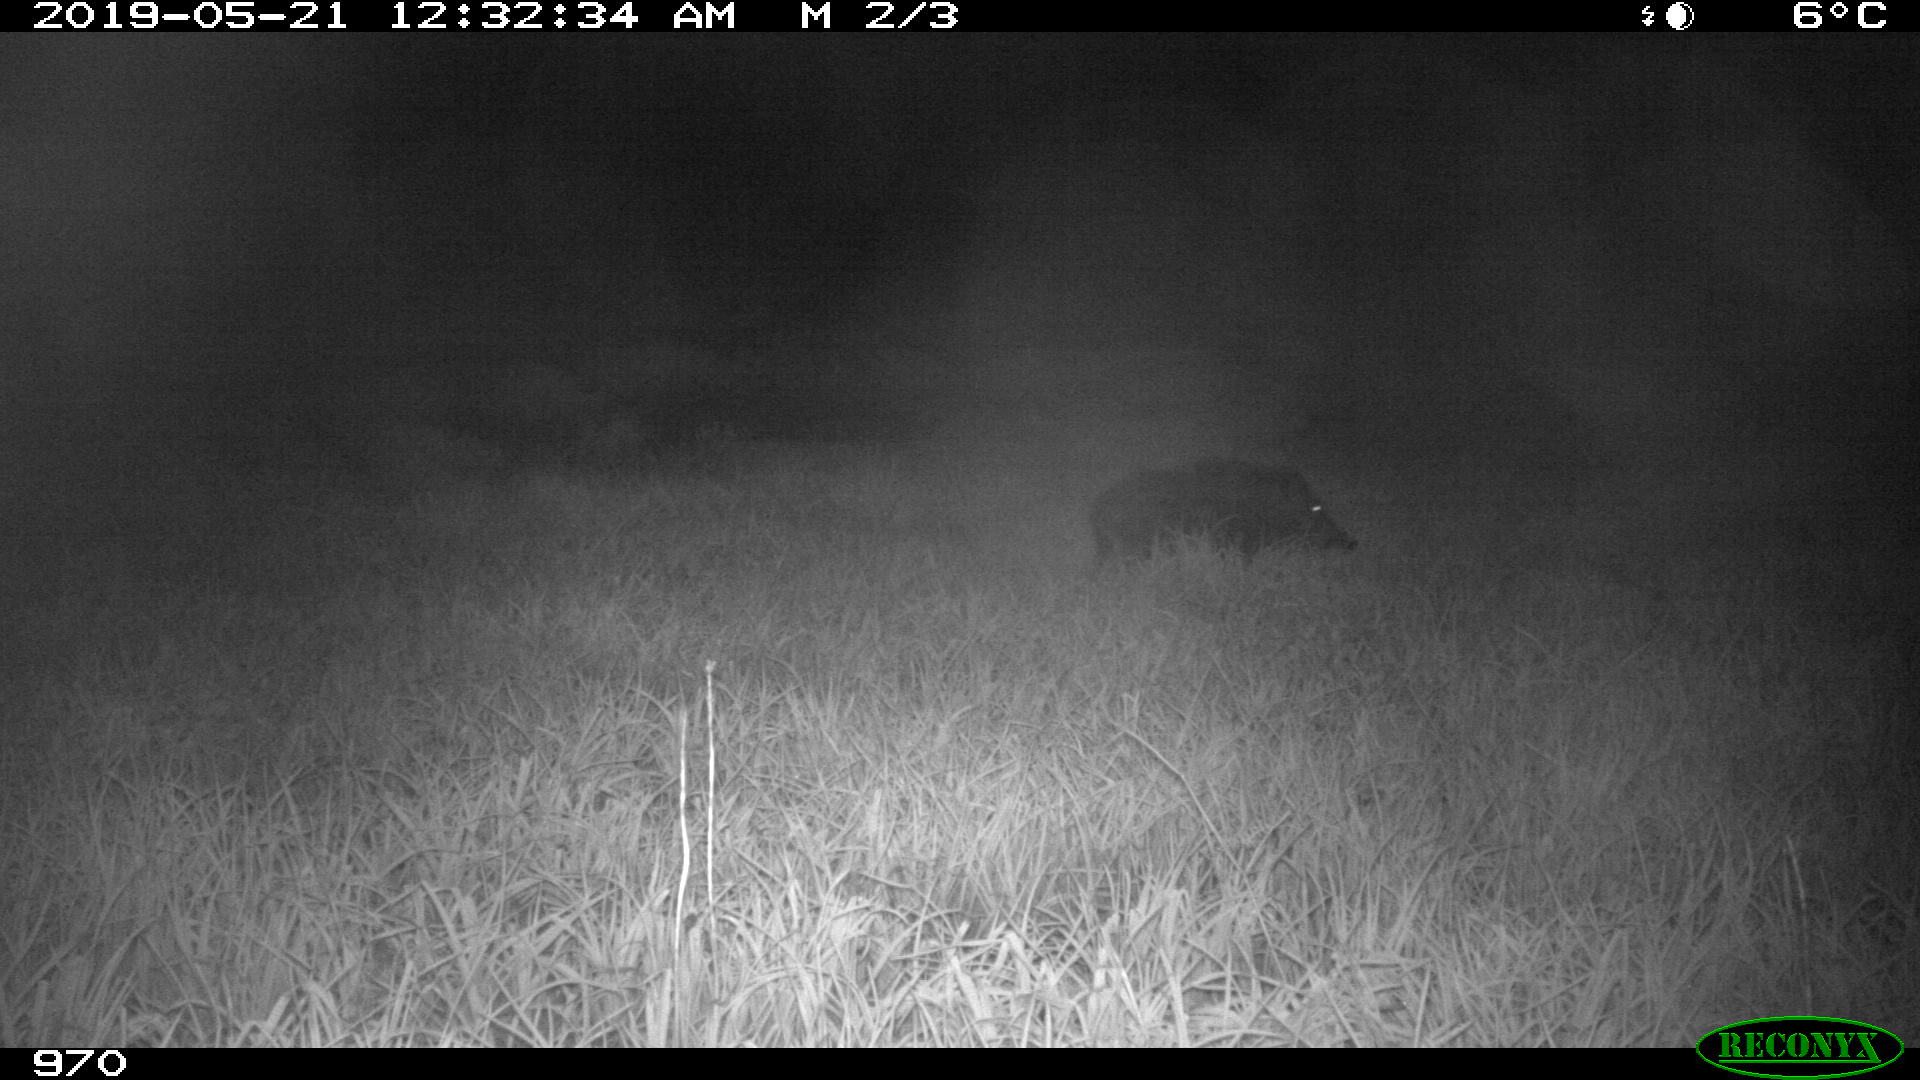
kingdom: Animalia
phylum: Chordata
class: Mammalia
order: Artiodactyla
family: Suidae
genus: Sus
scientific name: Sus scrofa
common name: Wild boar
